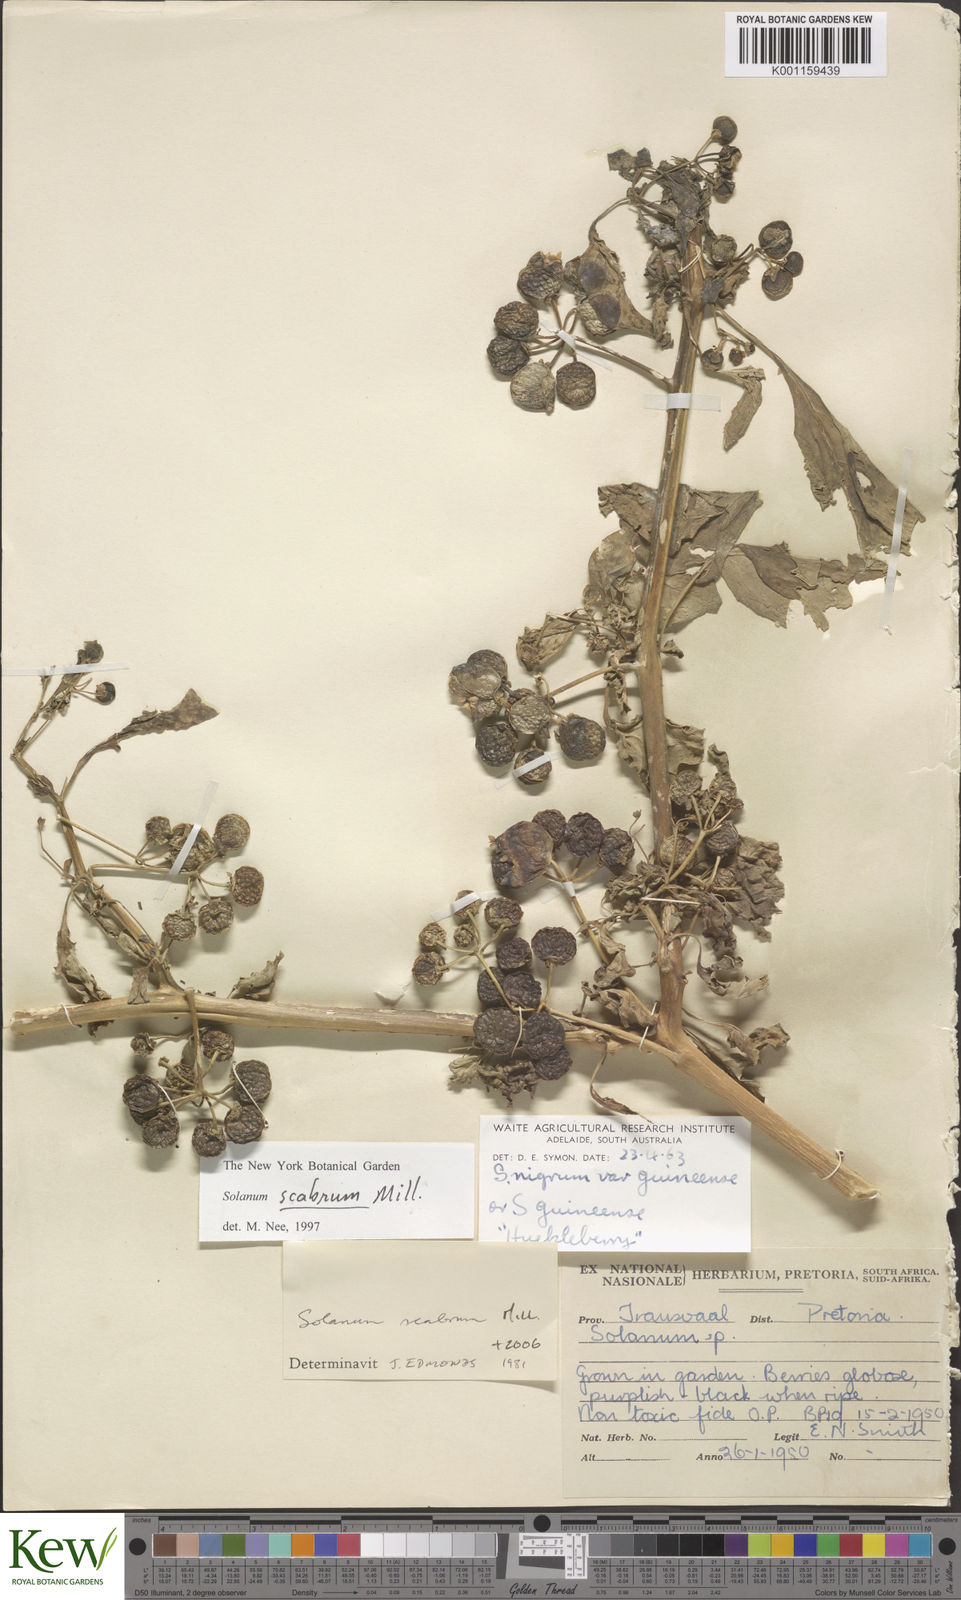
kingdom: Plantae
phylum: Tracheophyta
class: Magnoliopsida
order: Solanales
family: Solanaceae
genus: Solanum
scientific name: Solanum scabrum
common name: Garden-huckleberry
